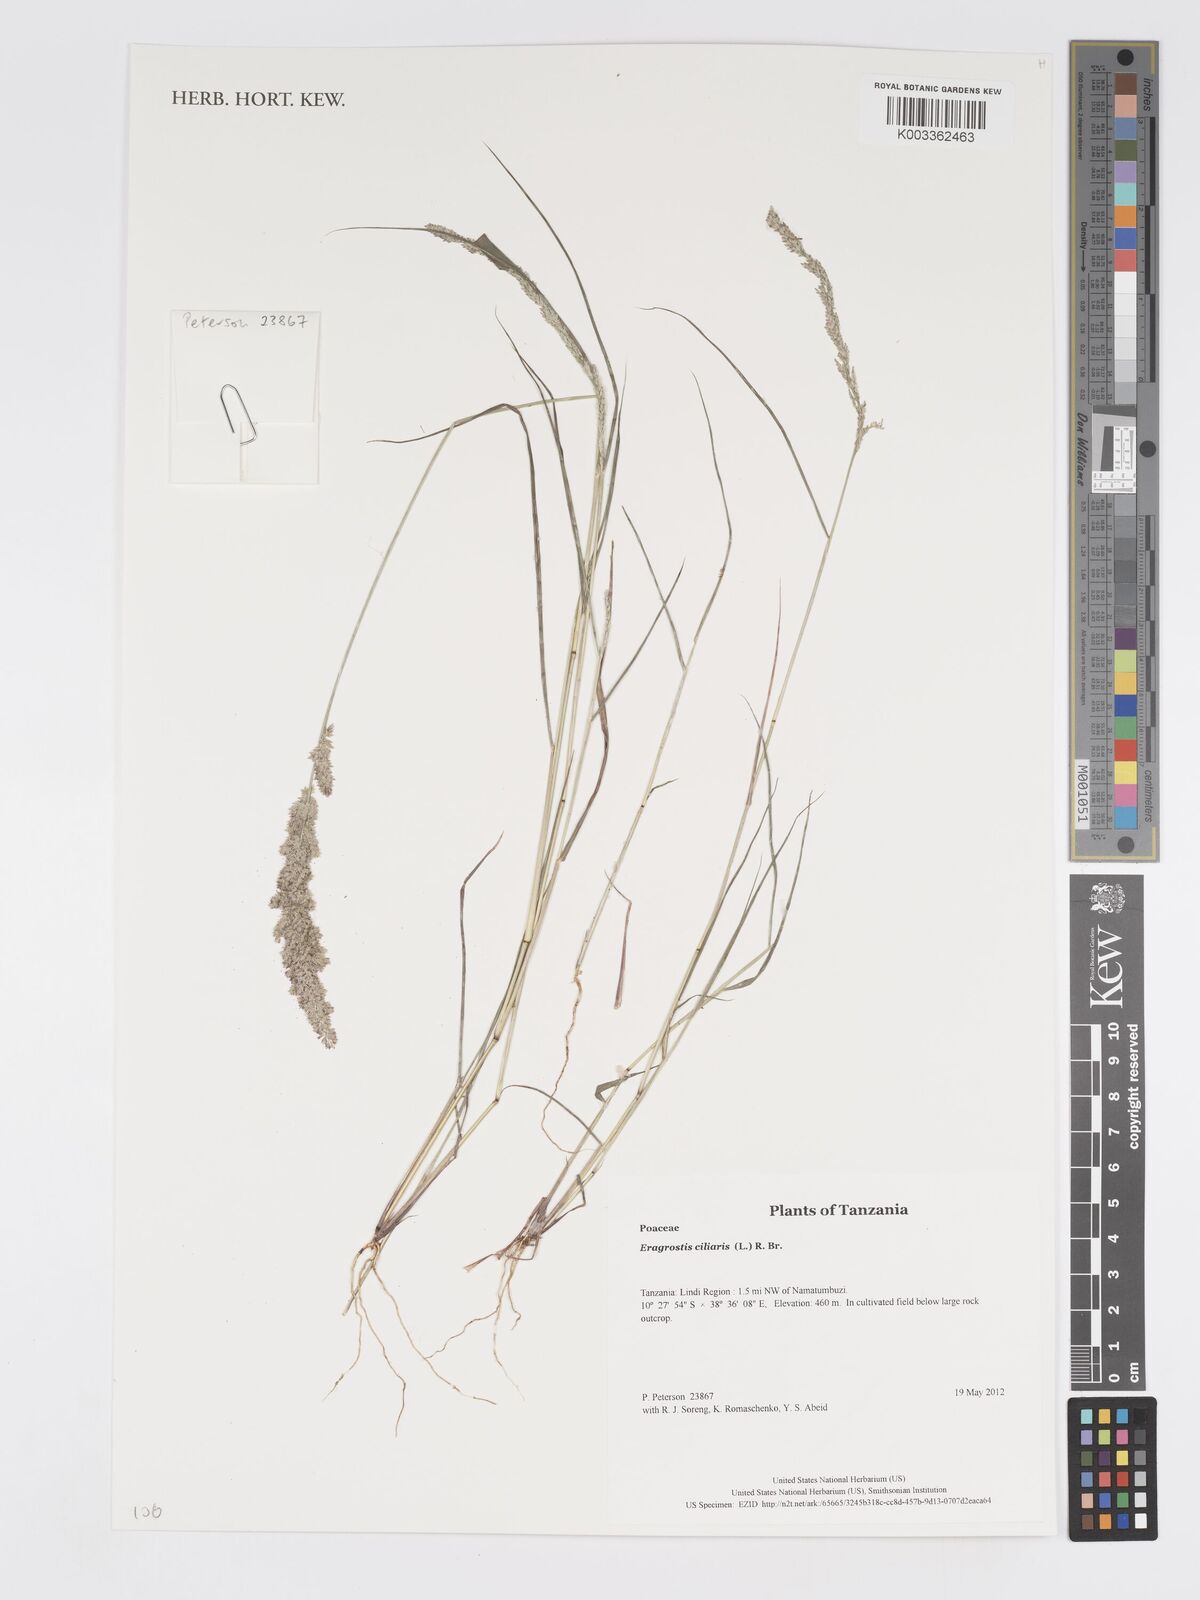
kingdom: Plantae
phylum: Tracheophyta
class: Liliopsida
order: Poales
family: Poaceae
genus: Eragrostis
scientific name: Eragrostis ciliaris
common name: Gophertail lovegrass
